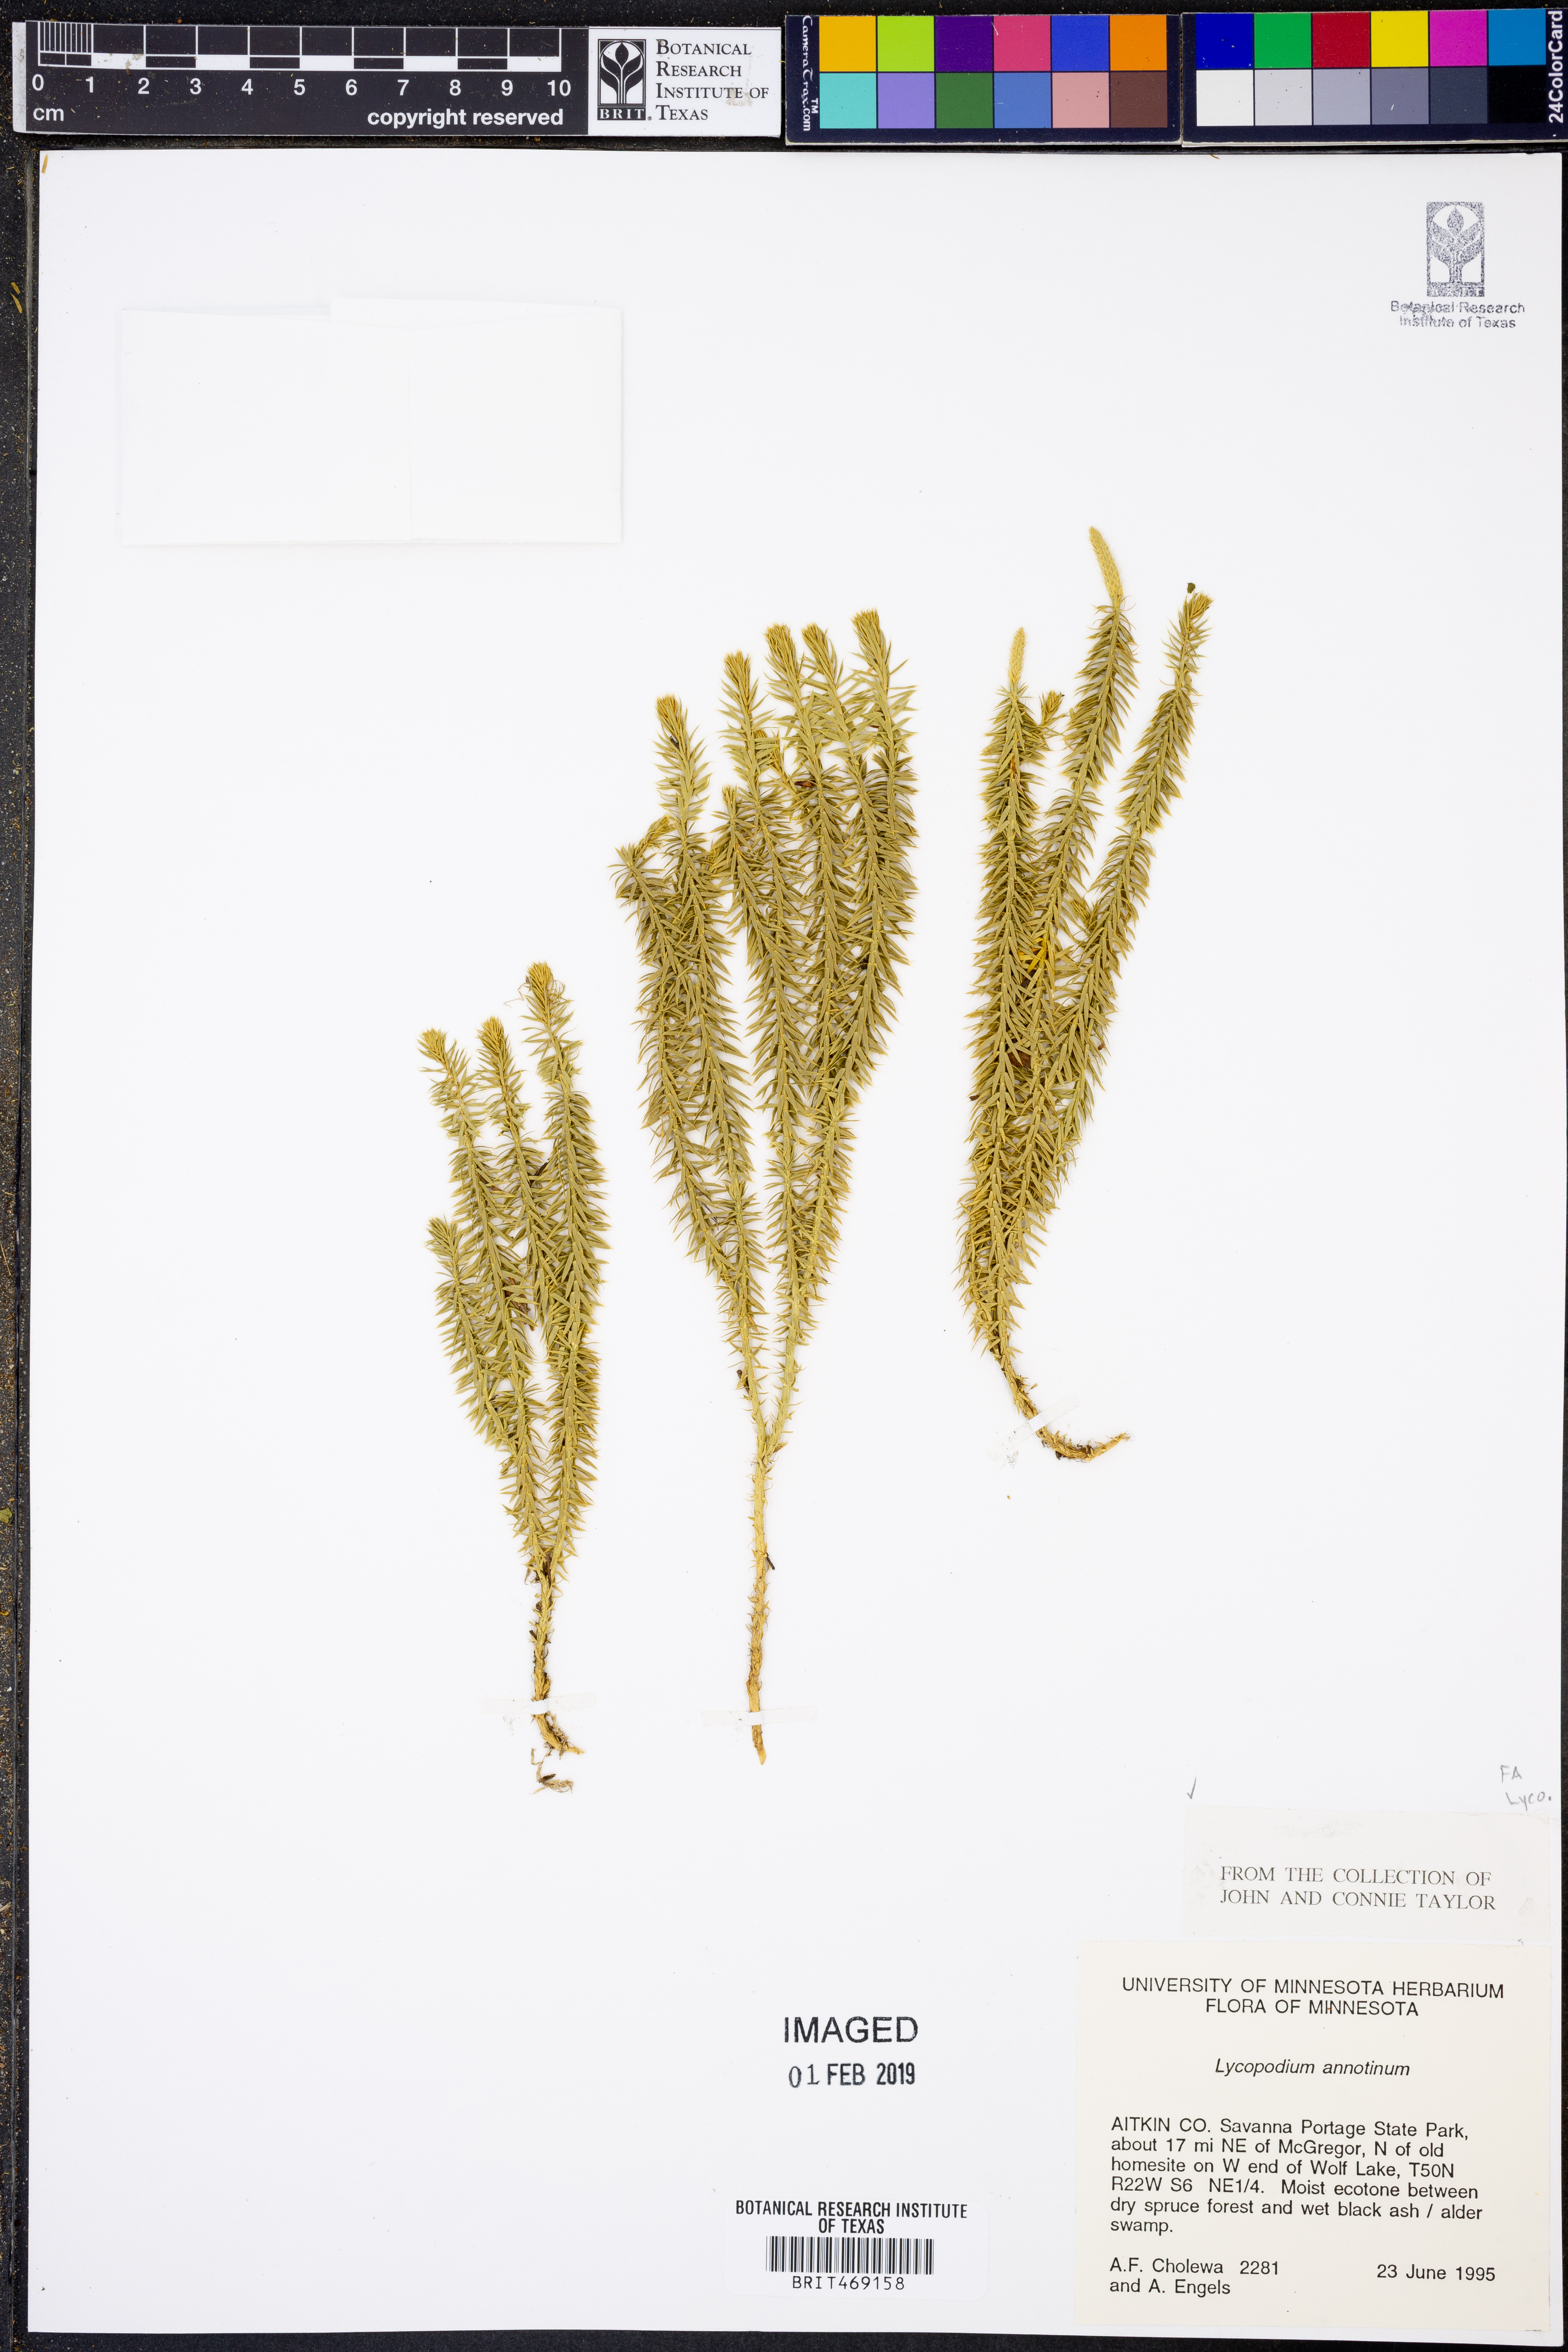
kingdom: Plantae
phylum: Tracheophyta
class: Lycopodiopsida
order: Lycopodiales
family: Lycopodiaceae
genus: Spinulum
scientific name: Spinulum annotinum
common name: Interrupted club-moss
